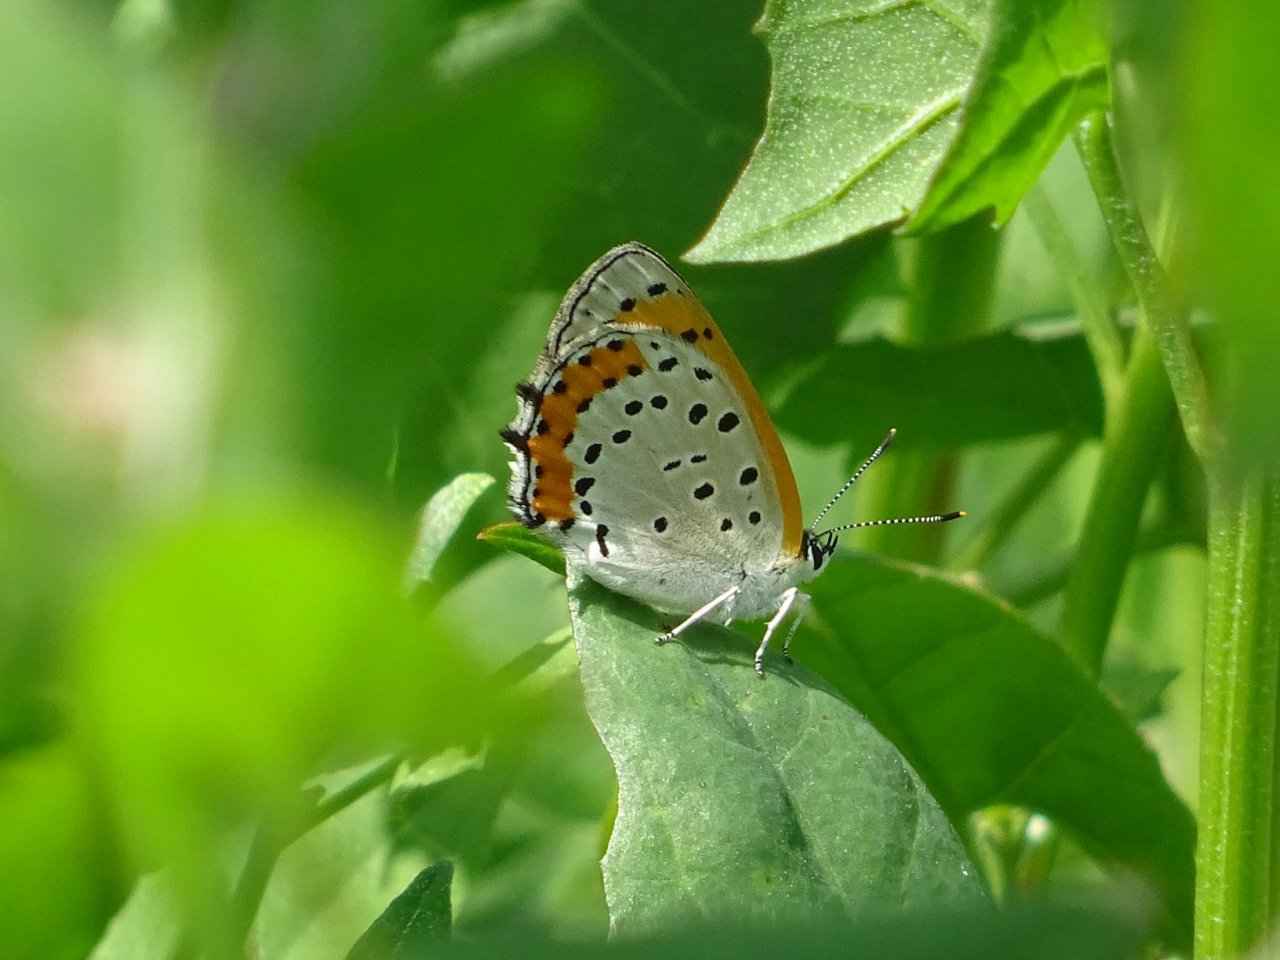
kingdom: Animalia
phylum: Arthropoda
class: Insecta
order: Lepidoptera
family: Sesiidae
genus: Sesia
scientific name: Sesia Lycaena hyllus
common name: Bronze Copper
